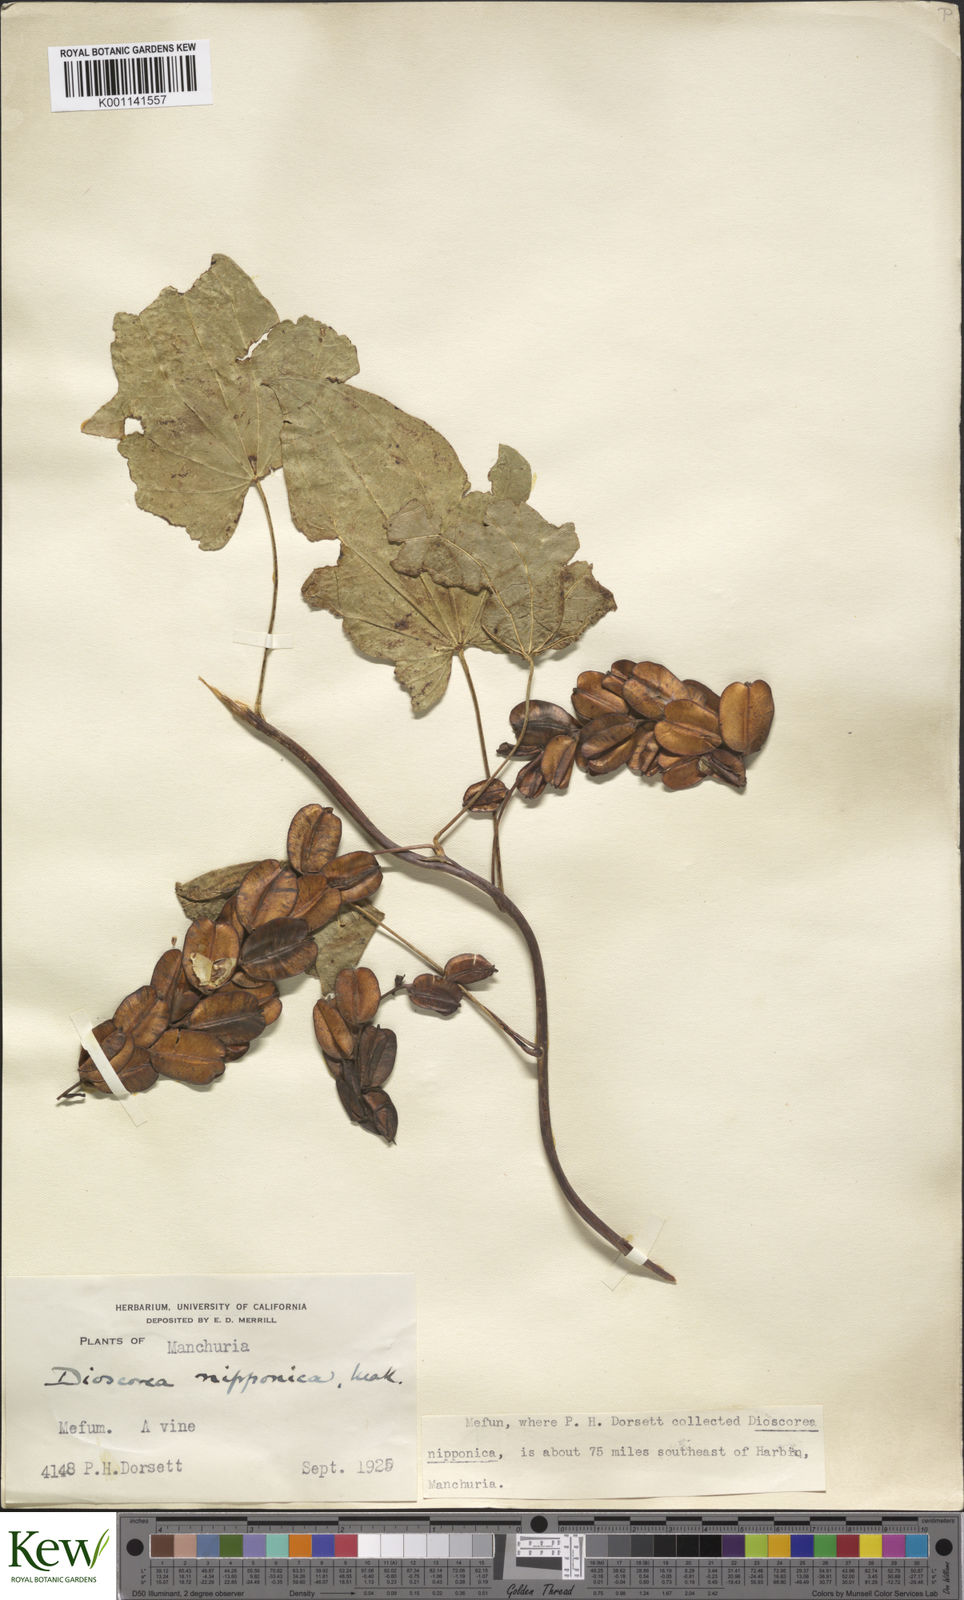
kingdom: Plantae
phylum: Tracheophyta
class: Liliopsida
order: Dioscoreales
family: Dioscoreaceae
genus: Dioscorea
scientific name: Dioscorea nipponica
